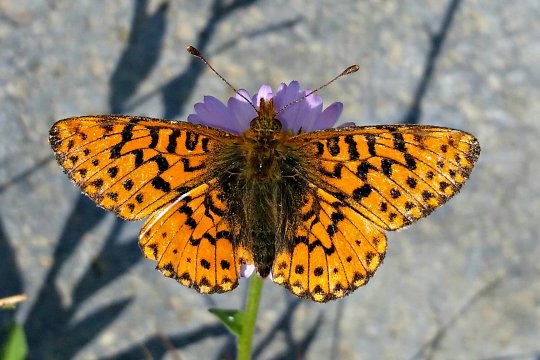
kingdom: Animalia
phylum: Arthropoda
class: Insecta
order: Lepidoptera
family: Nymphalidae
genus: Boloria
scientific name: Boloria chariclea
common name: Arctic Fritillary
